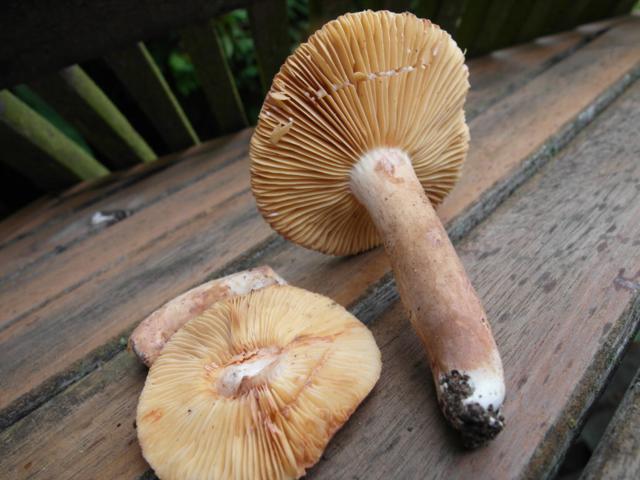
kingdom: Fungi
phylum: Basidiomycota
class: Agaricomycetes
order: Russulales
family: Russulaceae
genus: Lactarius
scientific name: Lactarius ruginosus
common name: gråbrun mælkehat
